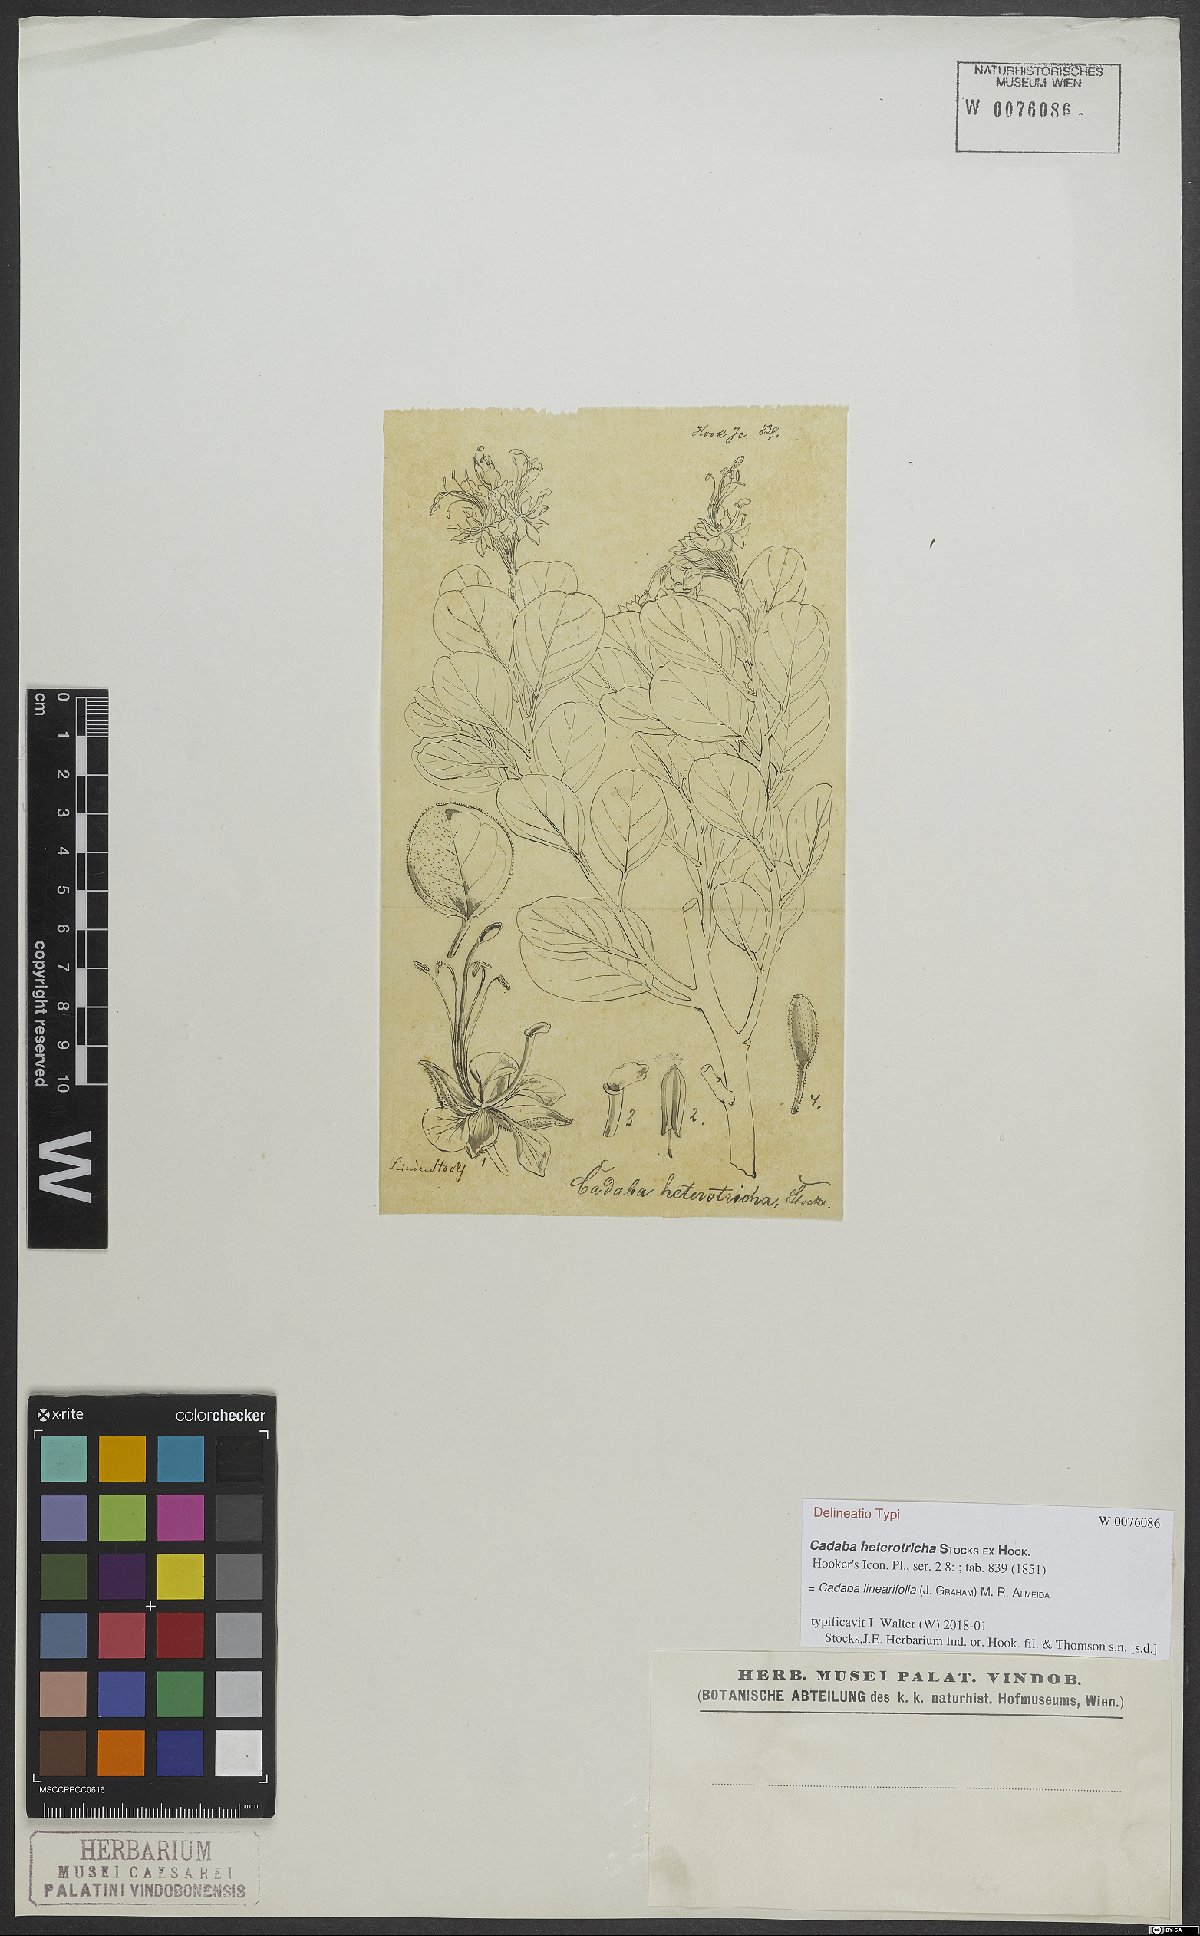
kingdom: Plantae
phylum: Tracheophyta
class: Magnoliopsida
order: Brassicales
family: Capparaceae
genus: Cadaba
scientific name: Cadaba linearifolia
